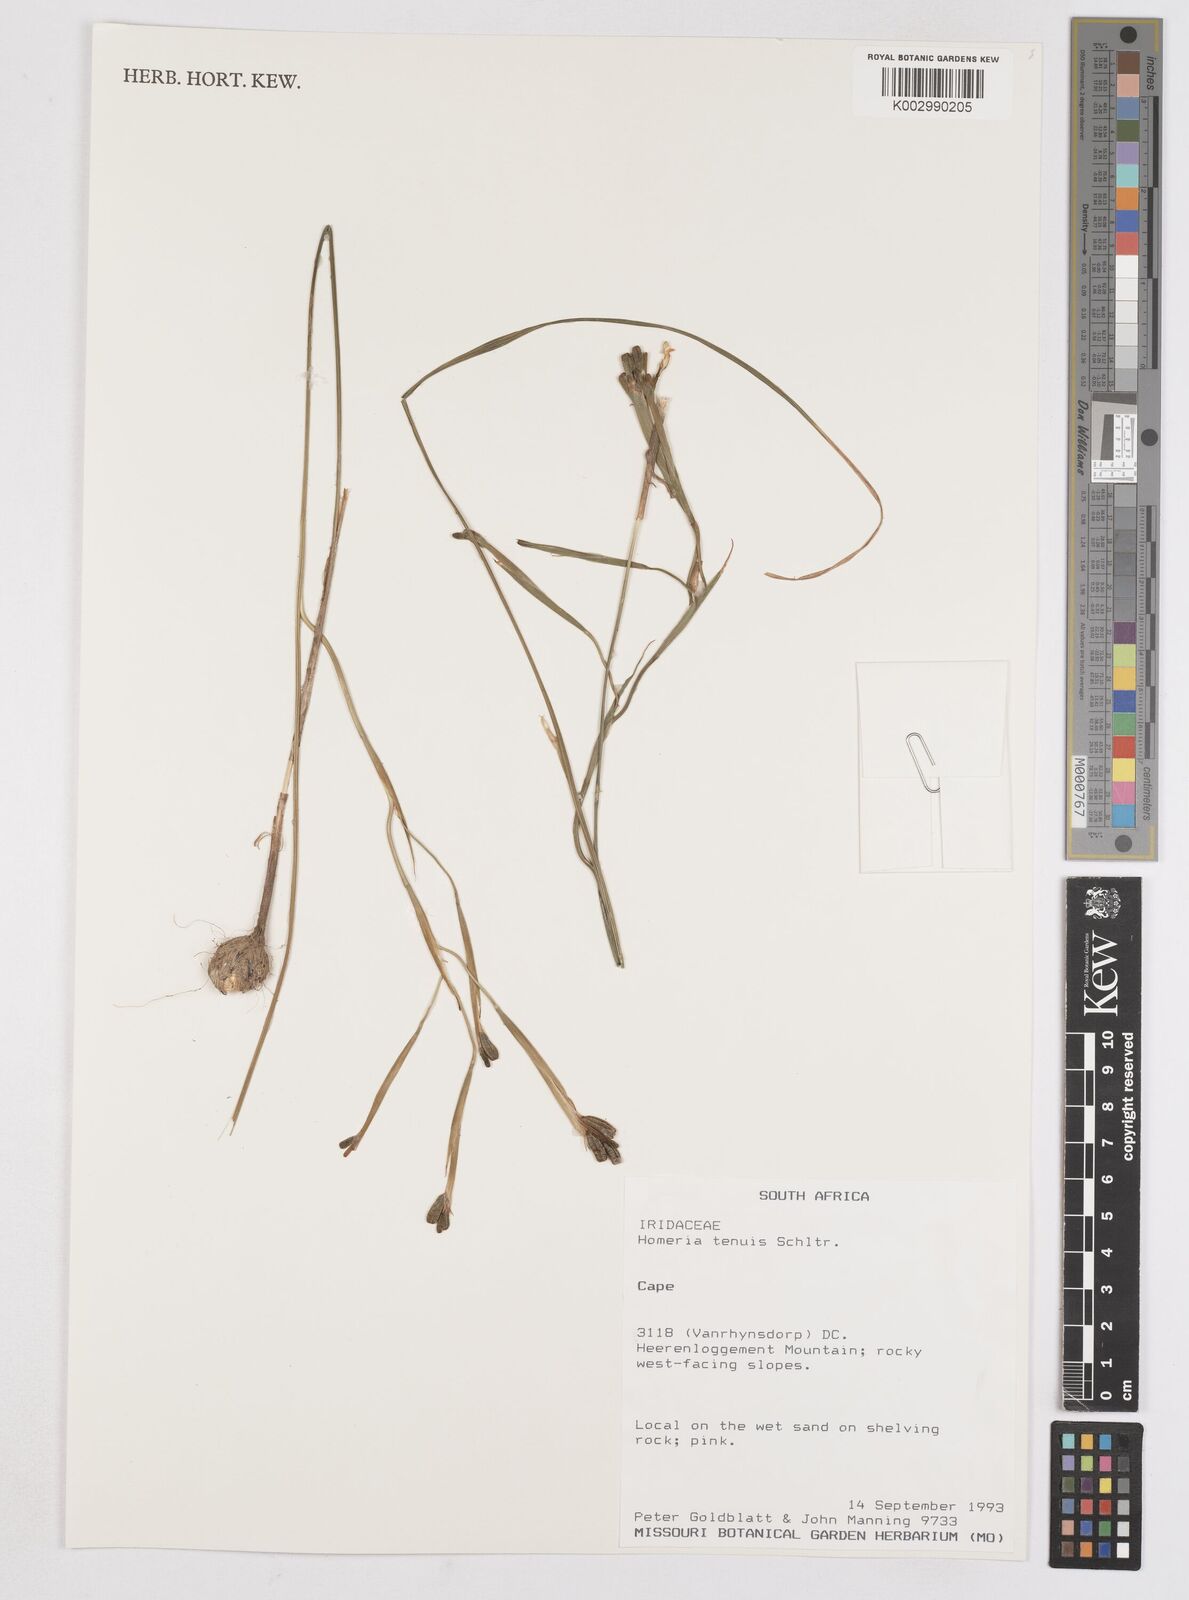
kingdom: Plantae
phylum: Tracheophyta
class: Liliopsida
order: Asparagales
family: Iridaceae
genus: Moraea
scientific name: Moraea unguiculata
